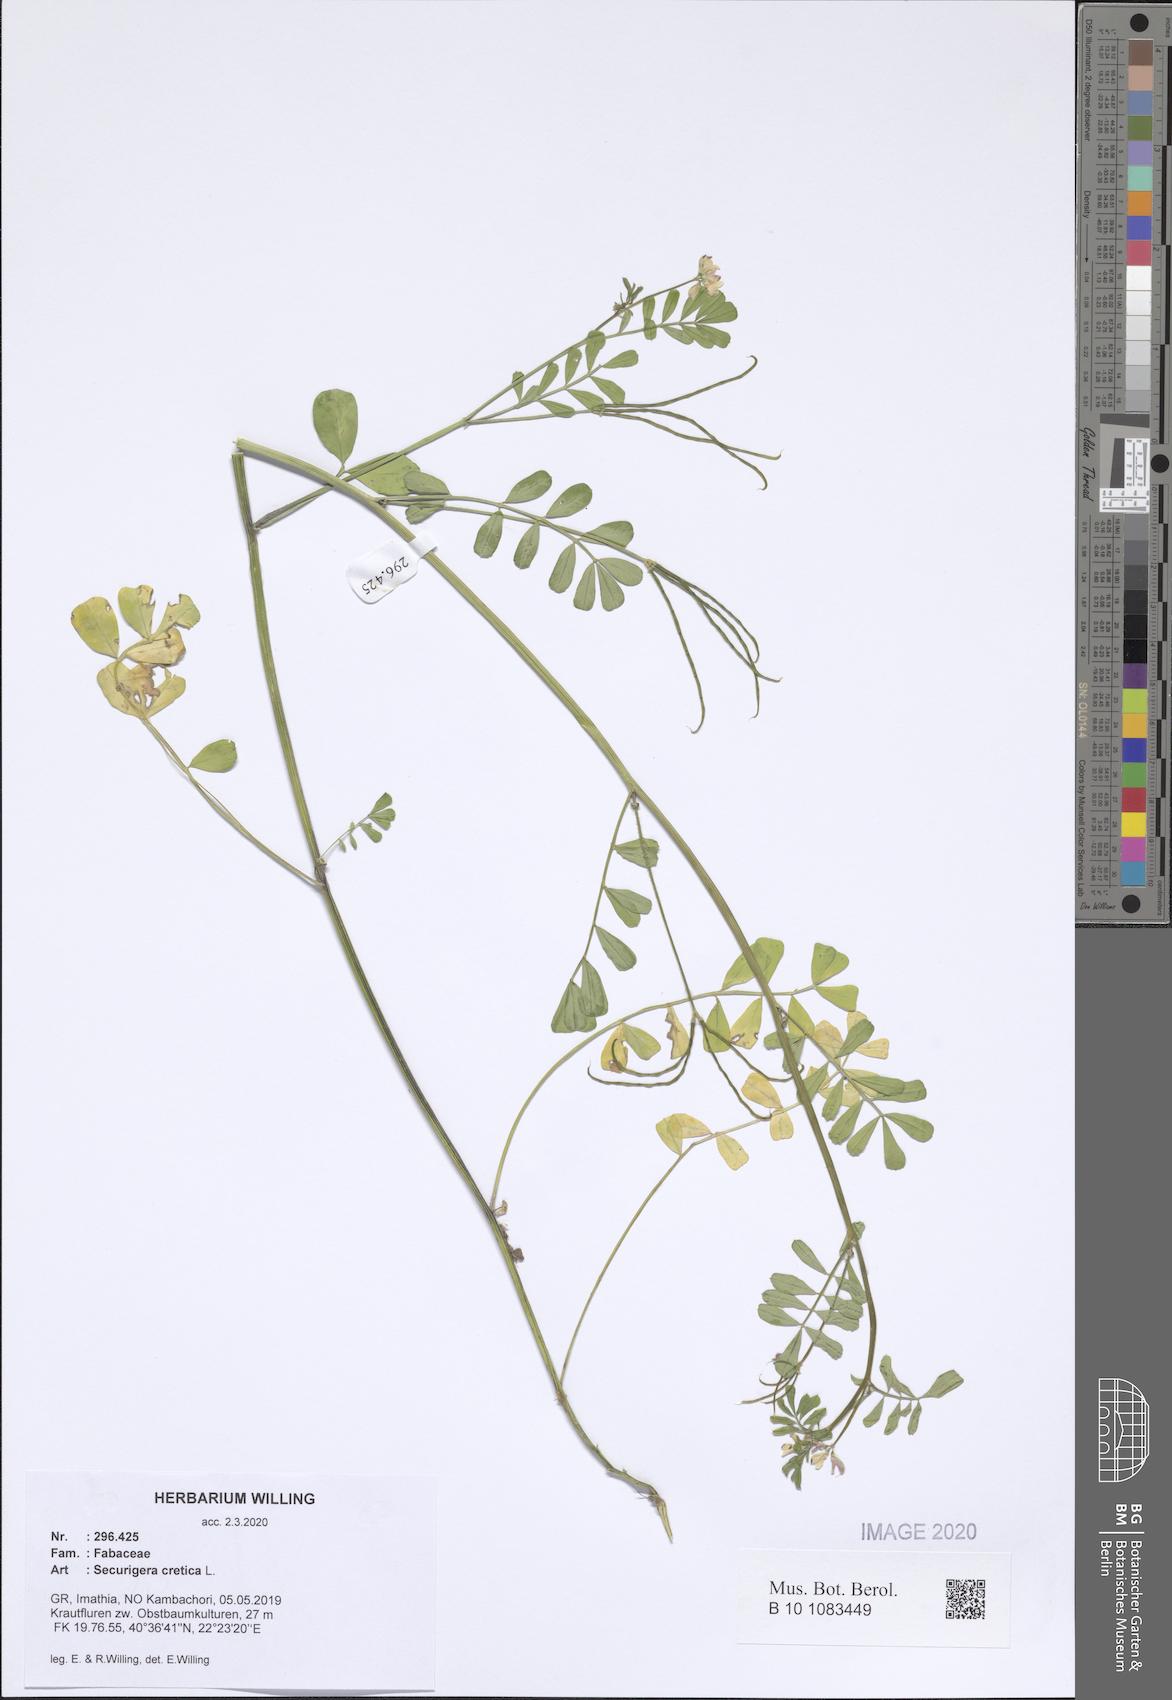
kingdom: Plantae
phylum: Tracheophyta
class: Magnoliopsida
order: Fabales
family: Fabaceae
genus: Coronilla
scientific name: Coronilla cretica
